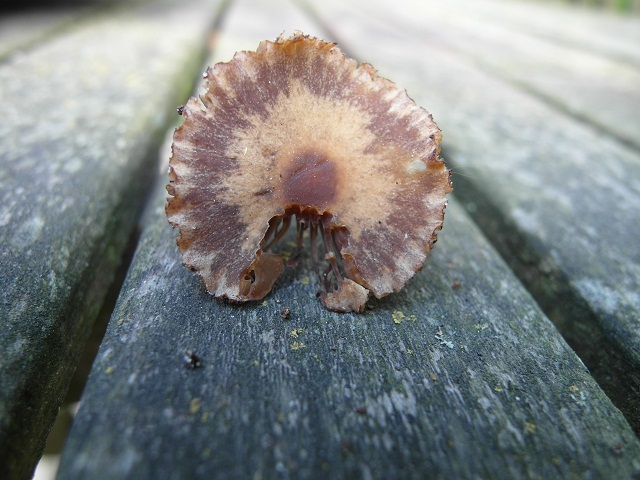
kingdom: Fungi
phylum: Basidiomycota
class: Agaricomycetes
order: Agaricales
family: Psathyrellaceae
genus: Psathyrella
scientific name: Psathyrella senex
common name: brunøjet mørkhat
